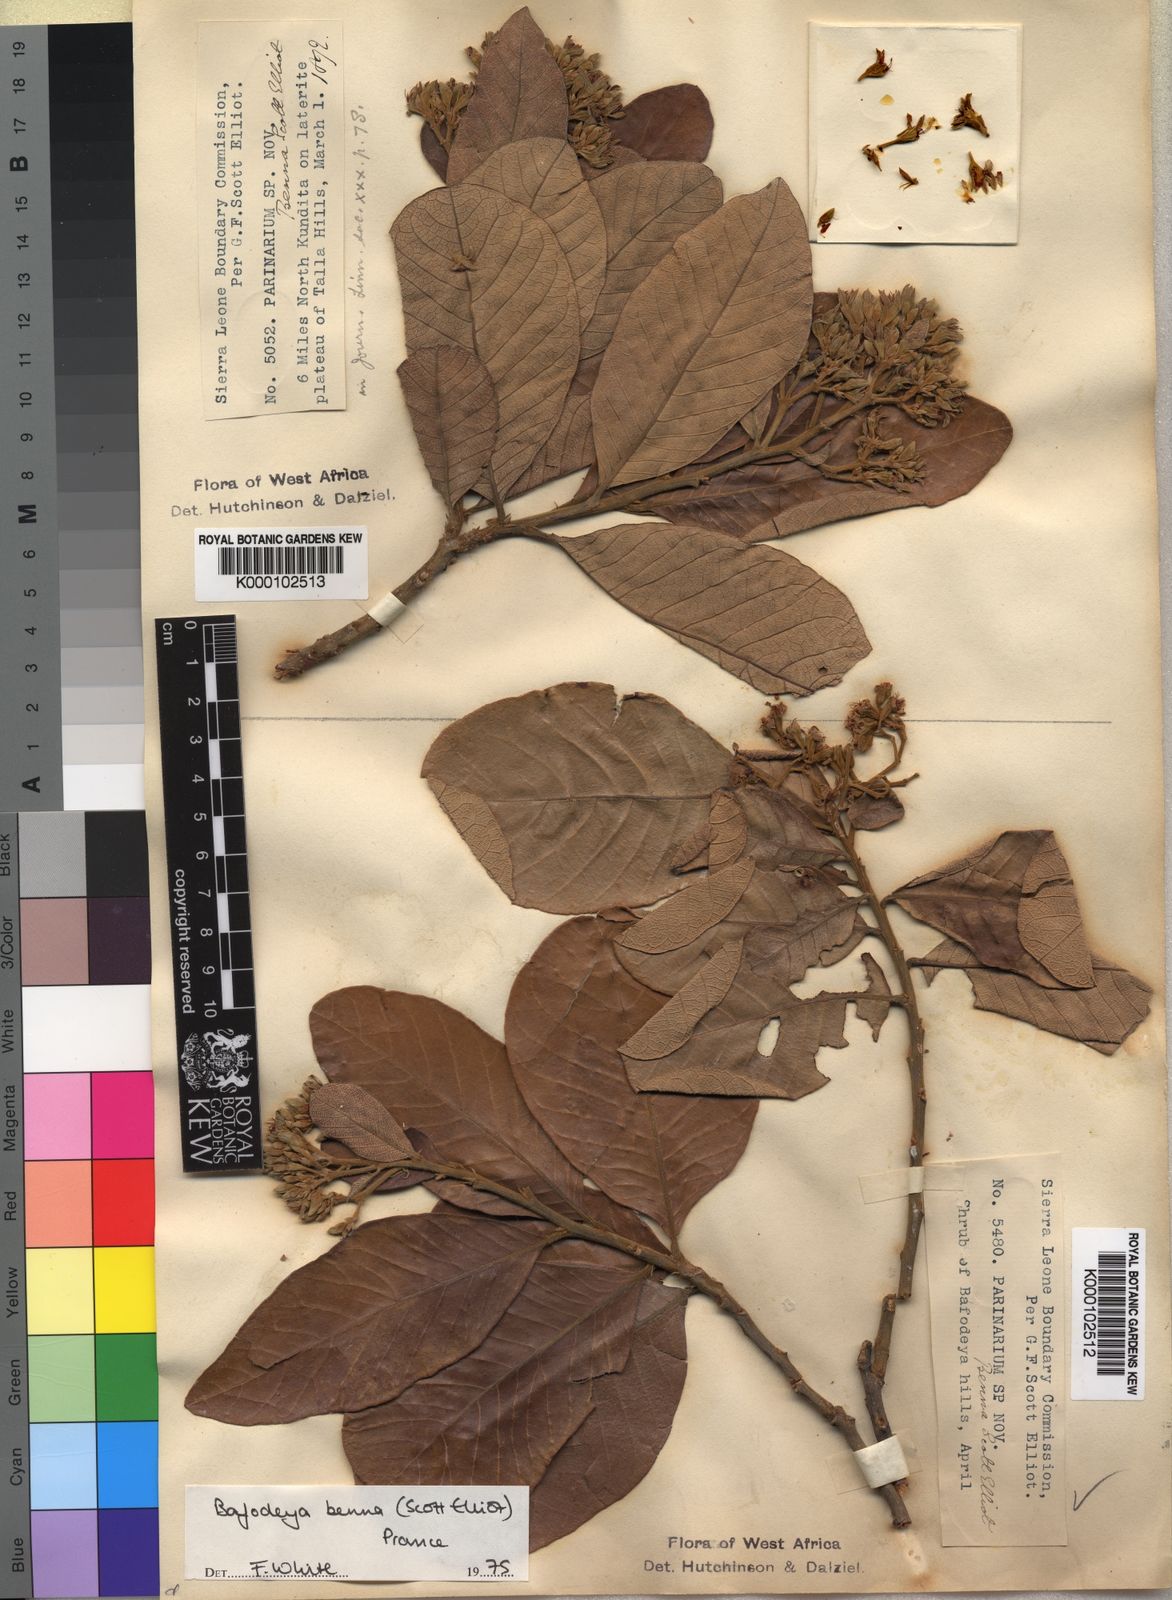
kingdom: Plantae
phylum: Tracheophyta
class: Magnoliopsida
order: Malpighiales
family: Chrysobalanaceae
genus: Bafodeya
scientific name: Bafodeya benna
